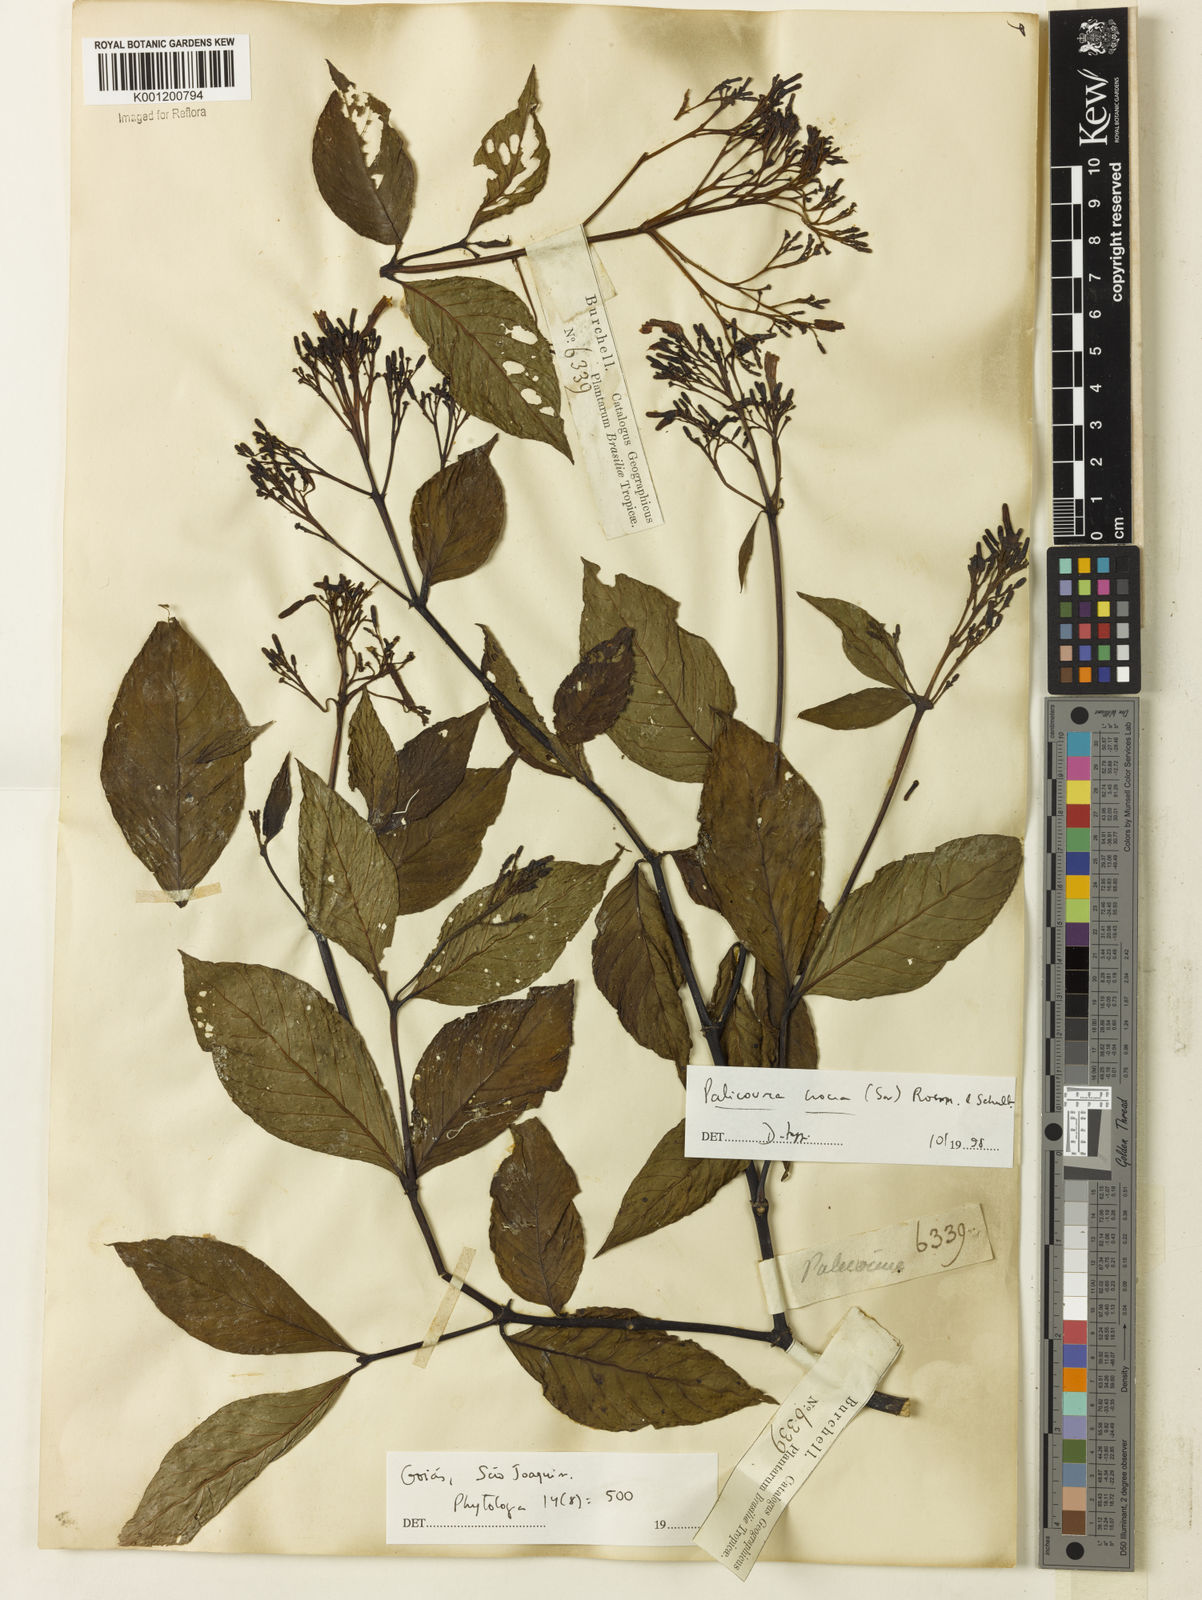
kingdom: Plantae
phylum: Tracheophyta
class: Magnoliopsida
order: Gentianales
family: Rubiaceae
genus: Palicourea
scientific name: Palicourea crocea
